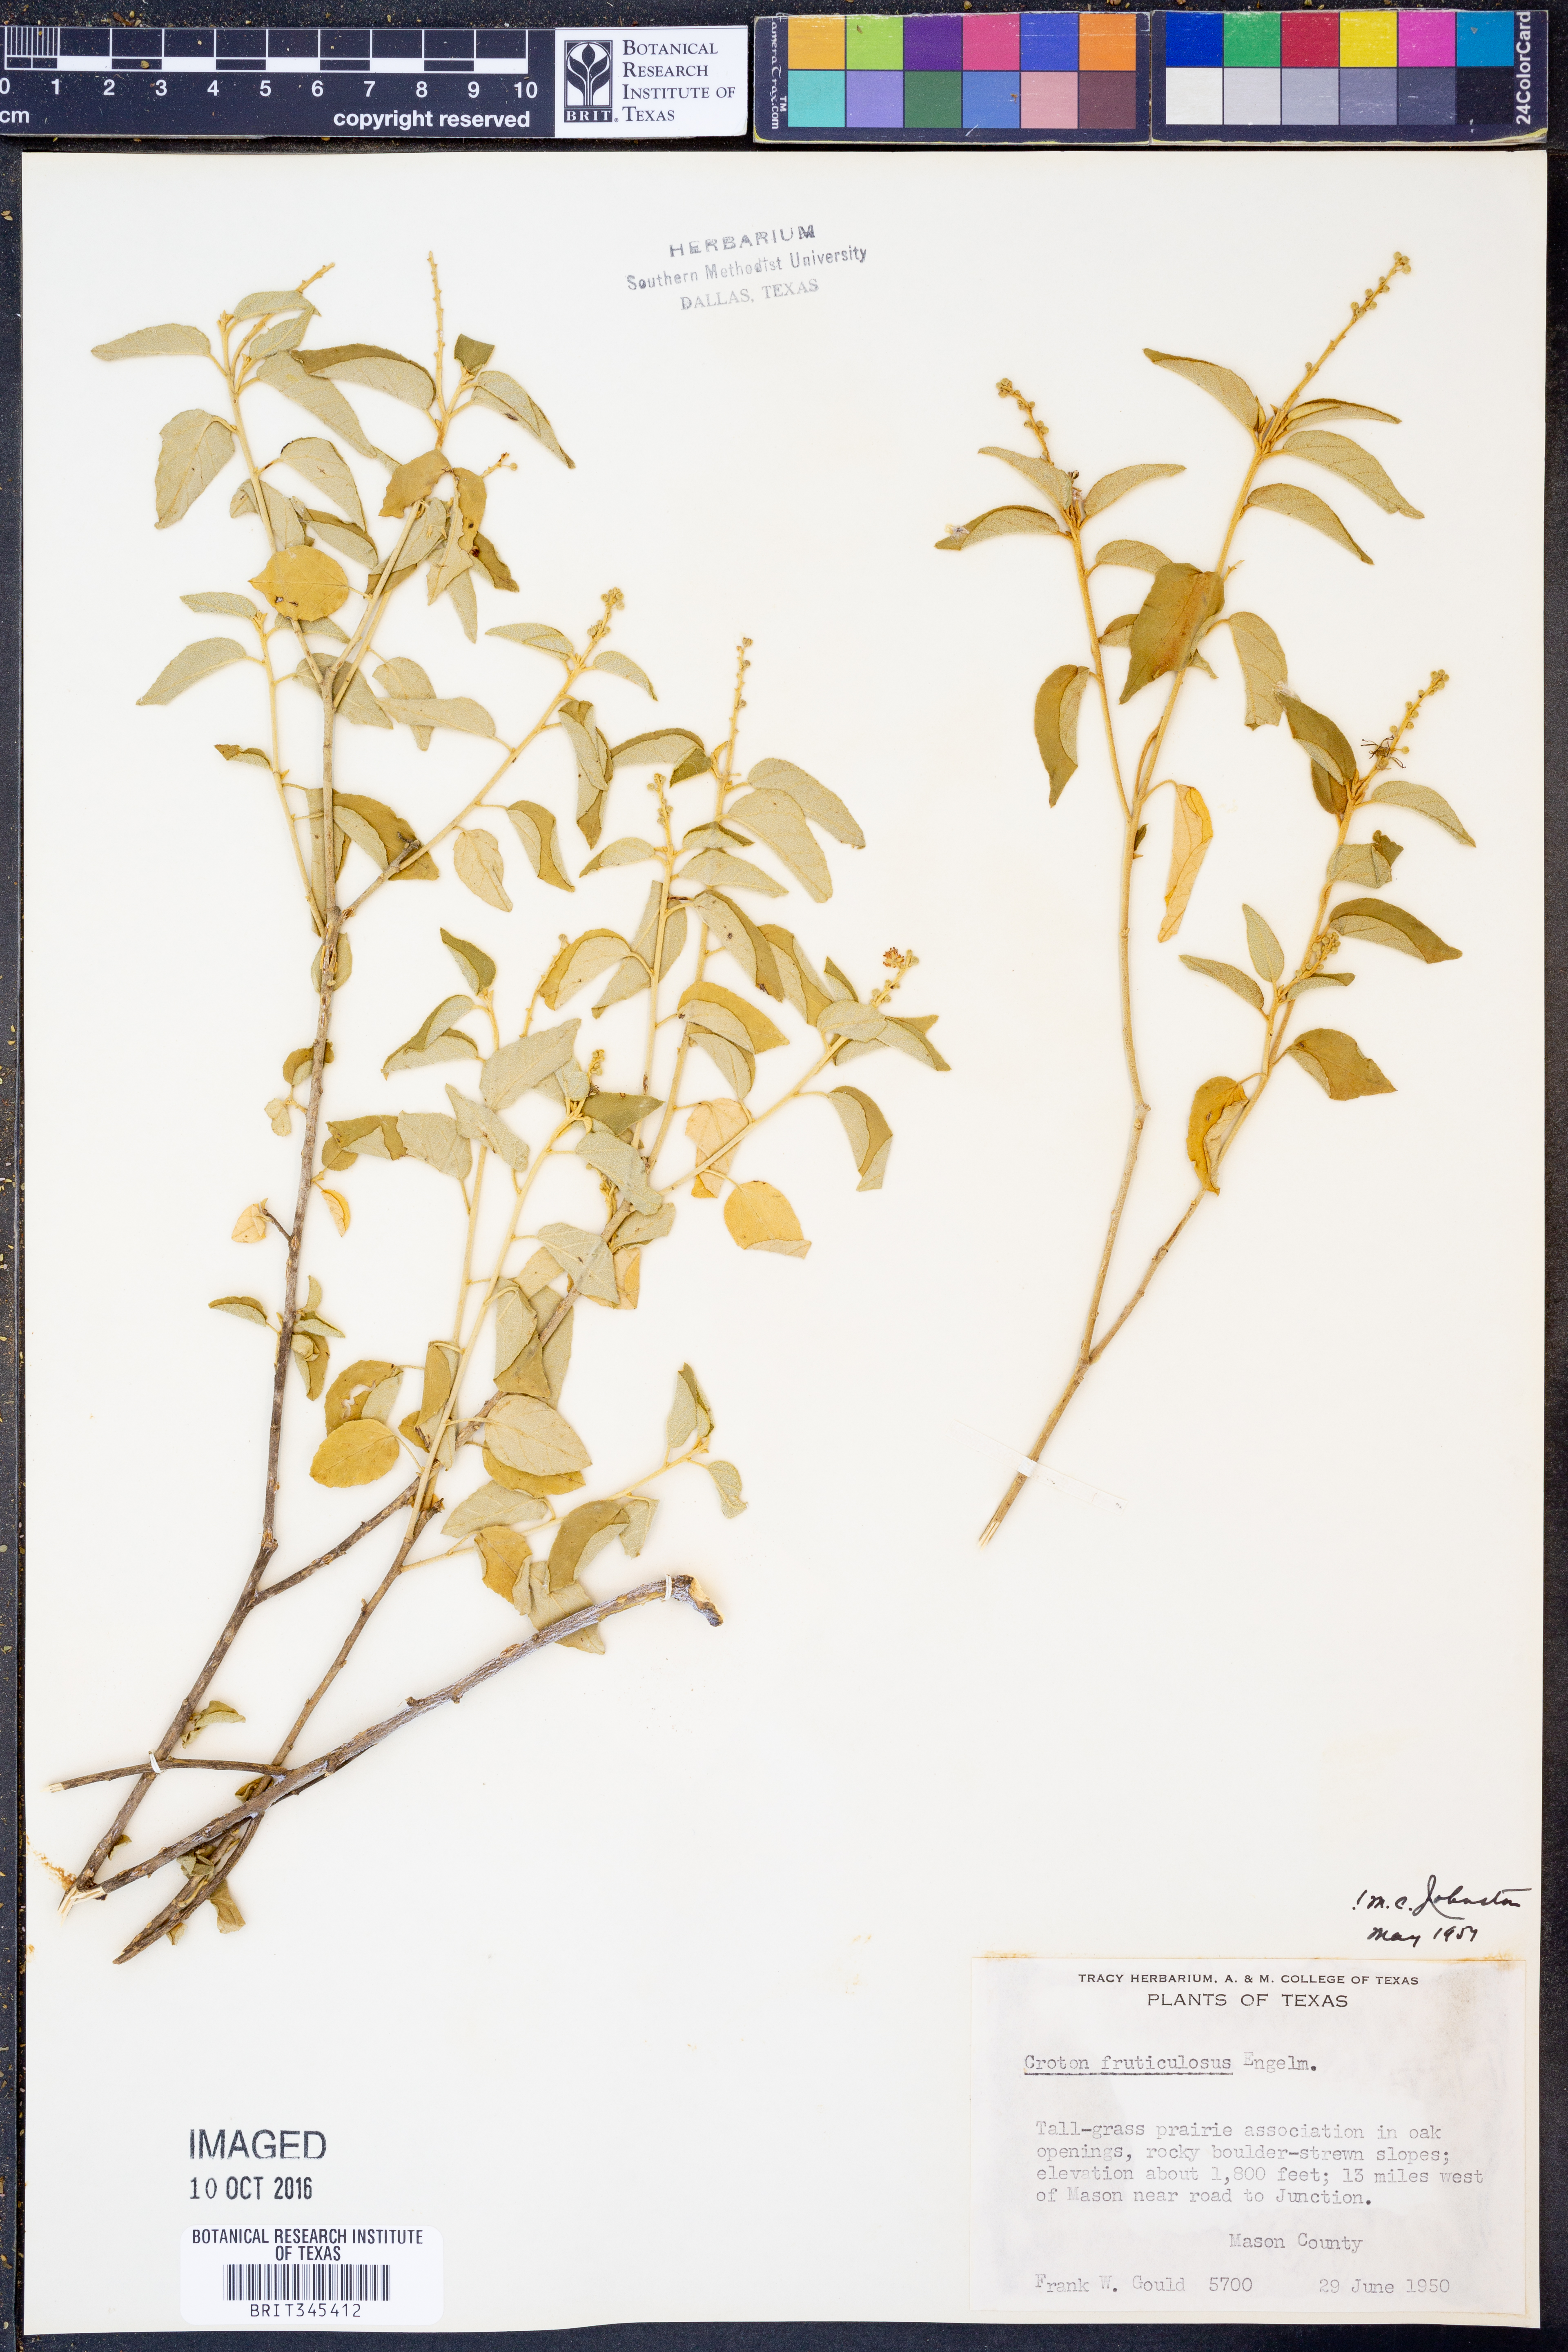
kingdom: Plantae
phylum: Tracheophyta
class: Magnoliopsida
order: Malpighiales
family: Euphorbiaceae
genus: Croton
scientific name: Croton fruticulosus
